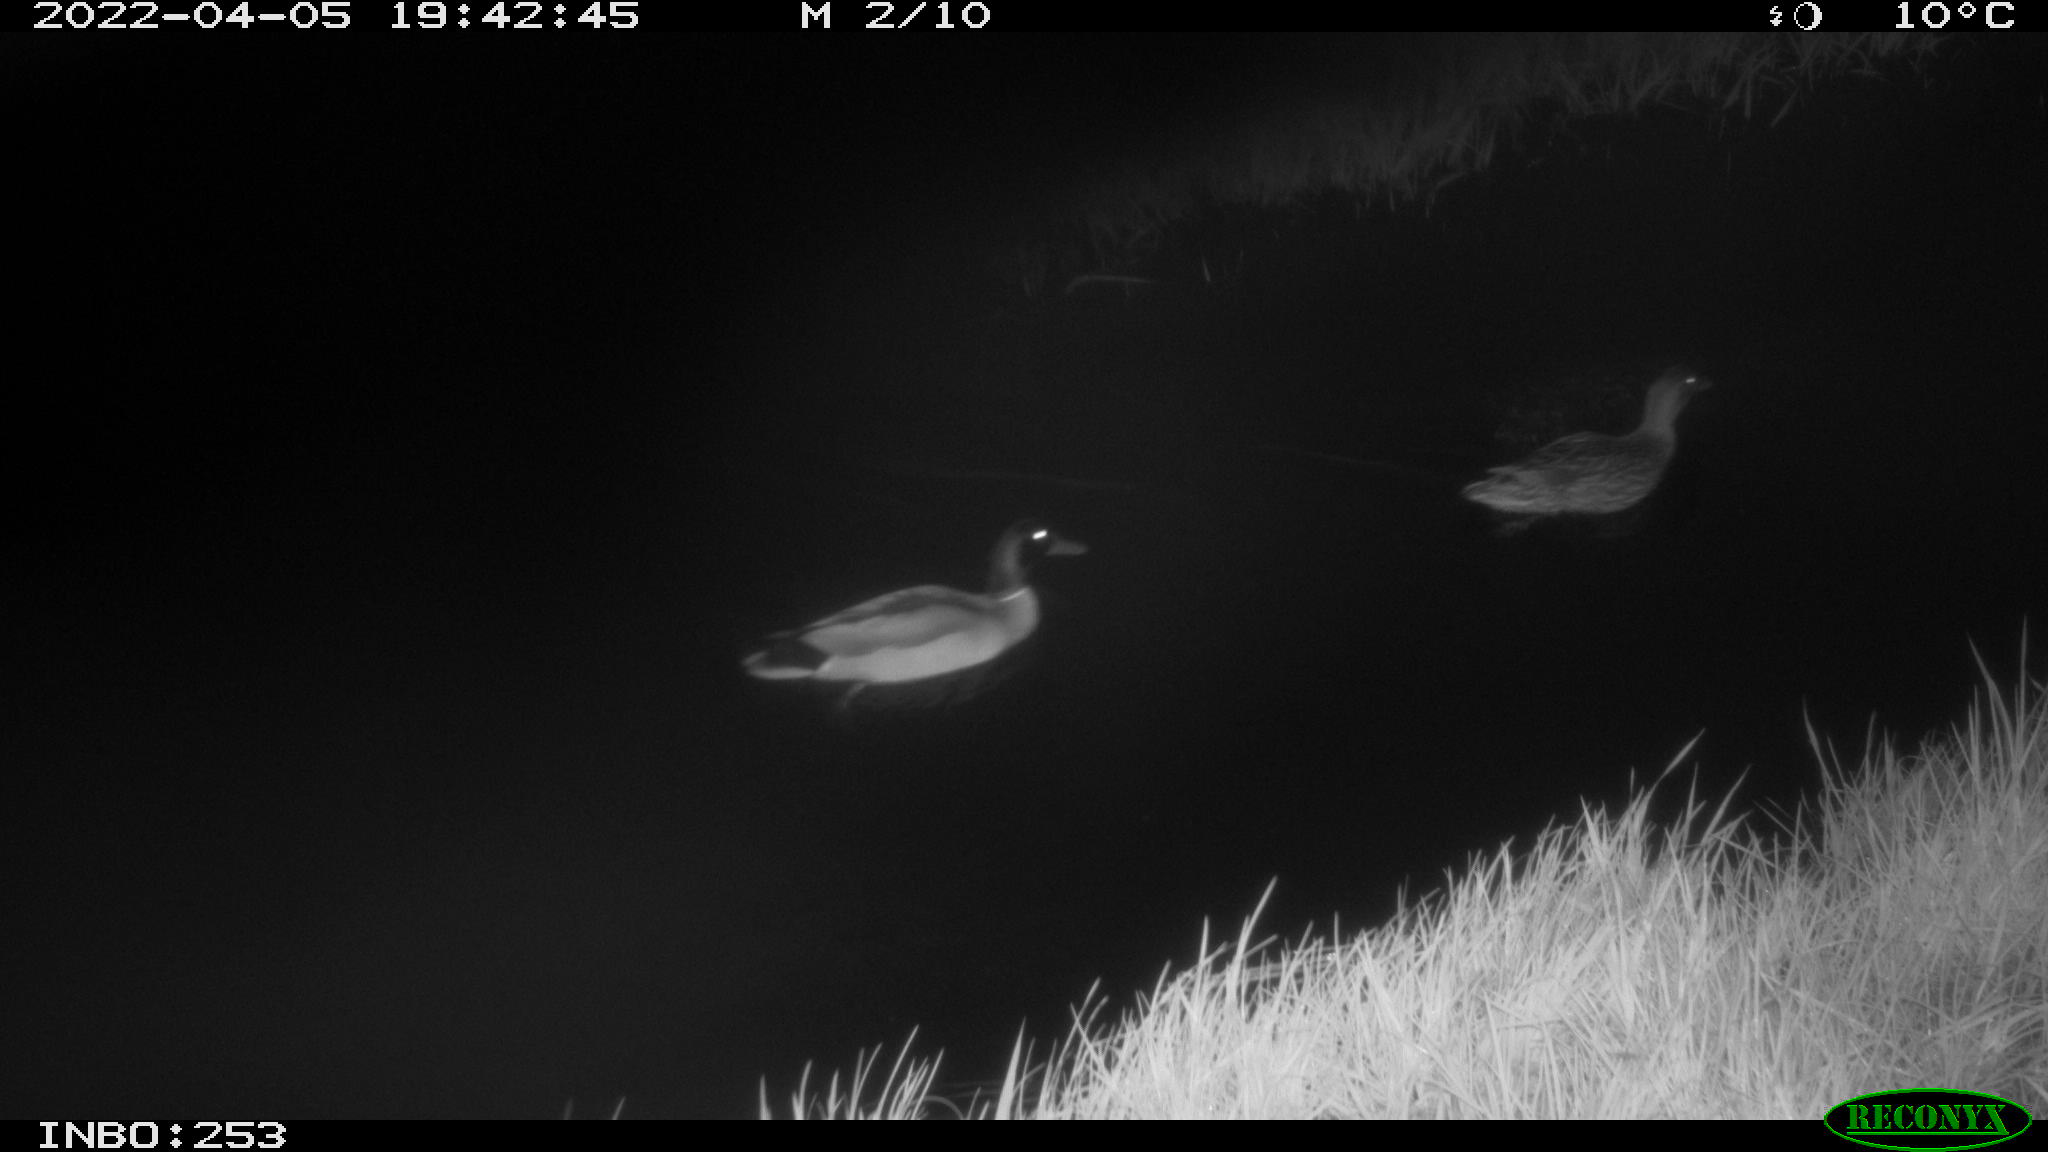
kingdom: Animalia
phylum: Chordata
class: Aves
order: Anseriformes
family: Anatidae
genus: Anas
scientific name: Anas platyrhynchos
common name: Mallard
